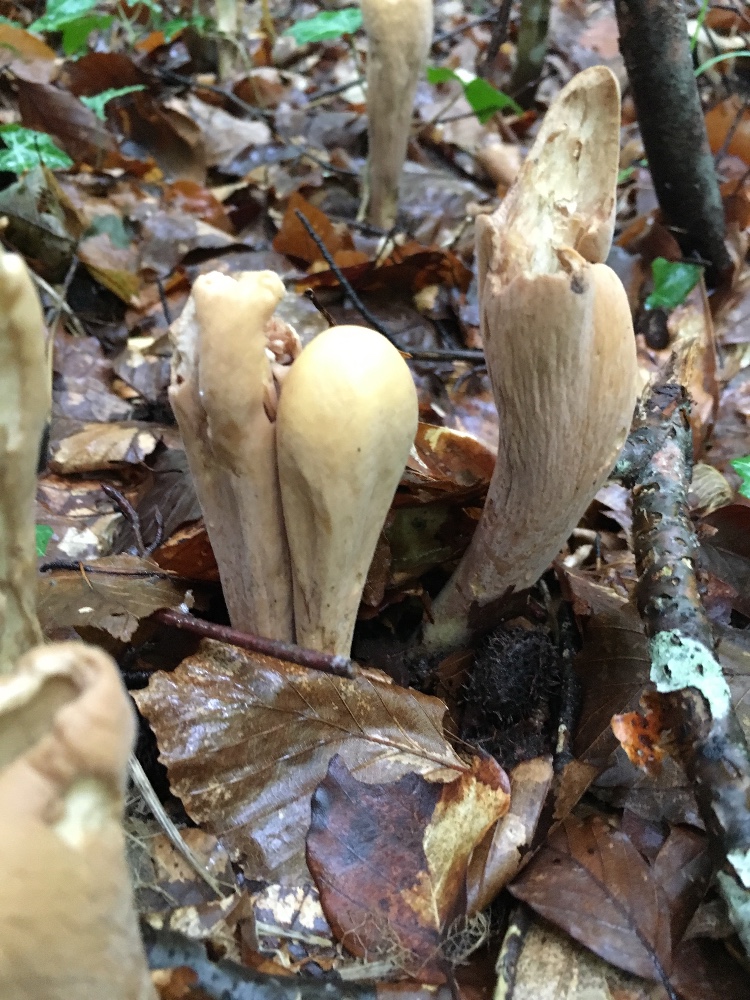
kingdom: Fungi
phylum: Basidiomycota
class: Agaricomycetes
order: Gomphales
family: Clavariadelphaceae
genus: Clavariadelphus
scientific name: Clavariadelphus pistillaris
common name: herkules-kæmpekølle
